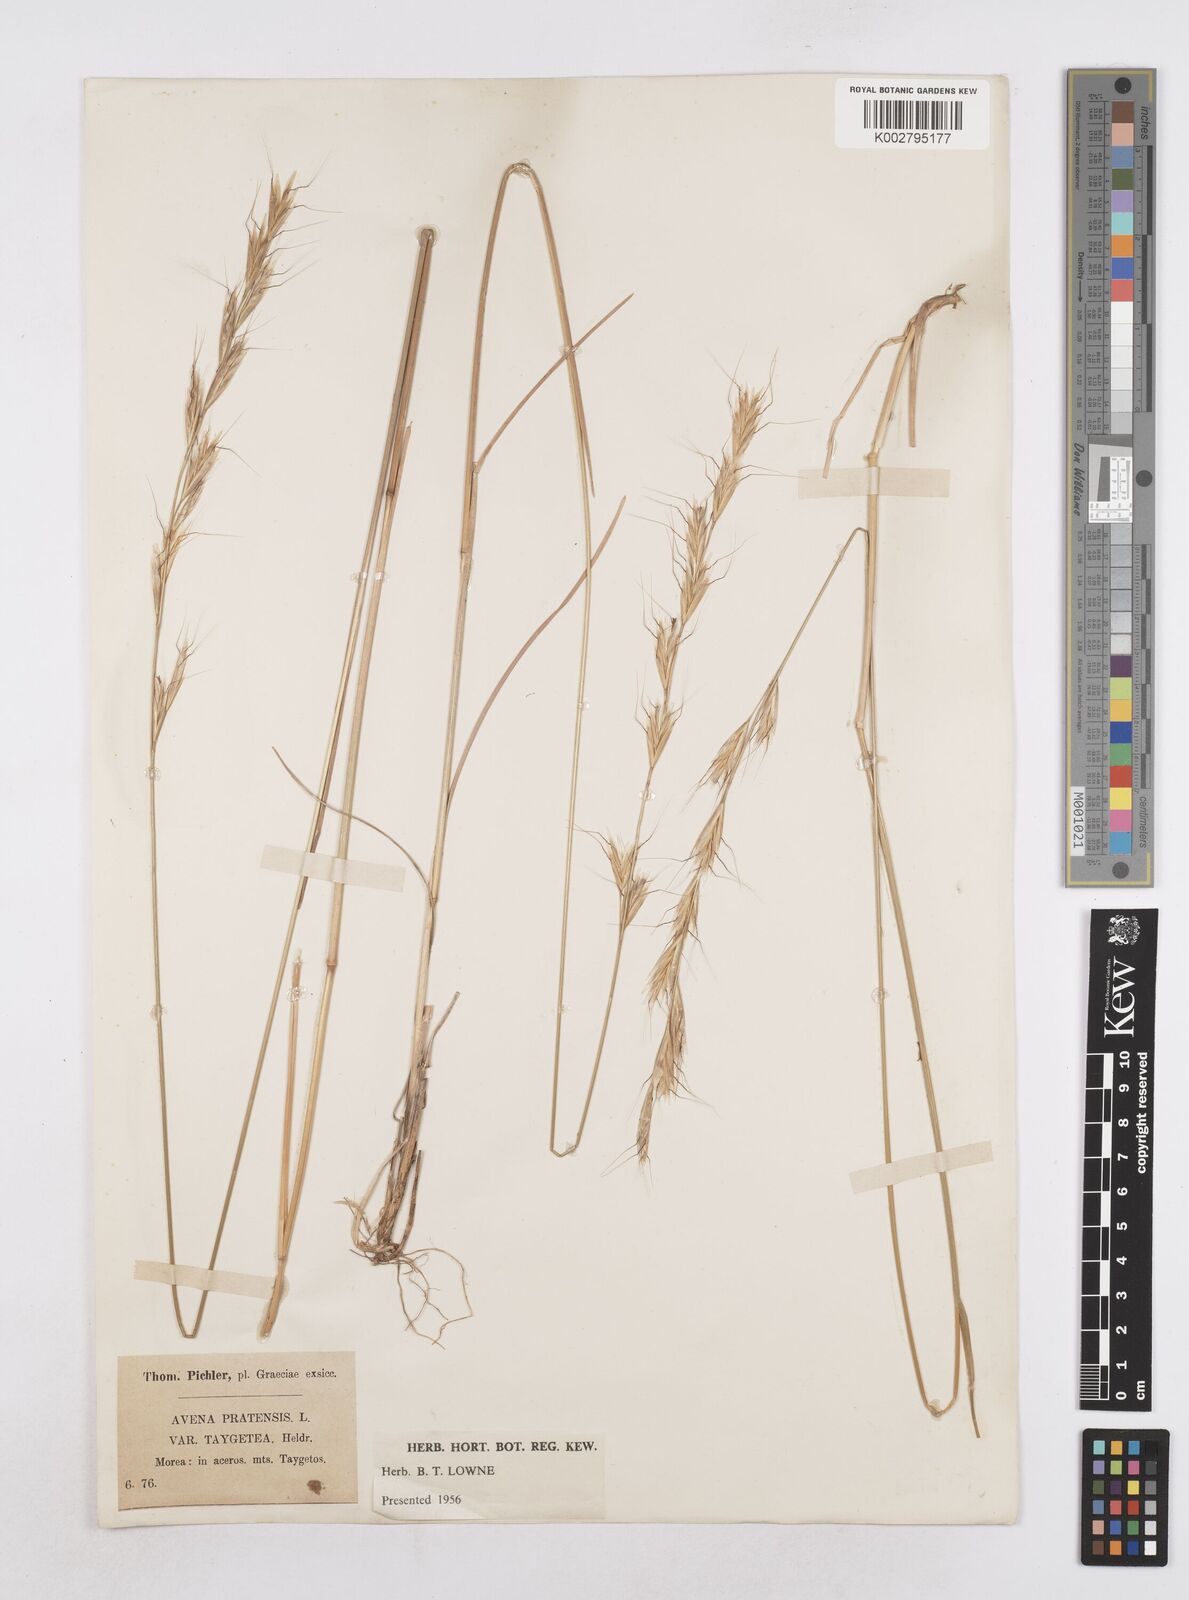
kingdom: Plantae
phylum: Tracheophyta
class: Liliopsida
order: Poales
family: Poaceae
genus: Helictochloa
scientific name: Helictochloa pratensis
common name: Meadow oat grass
